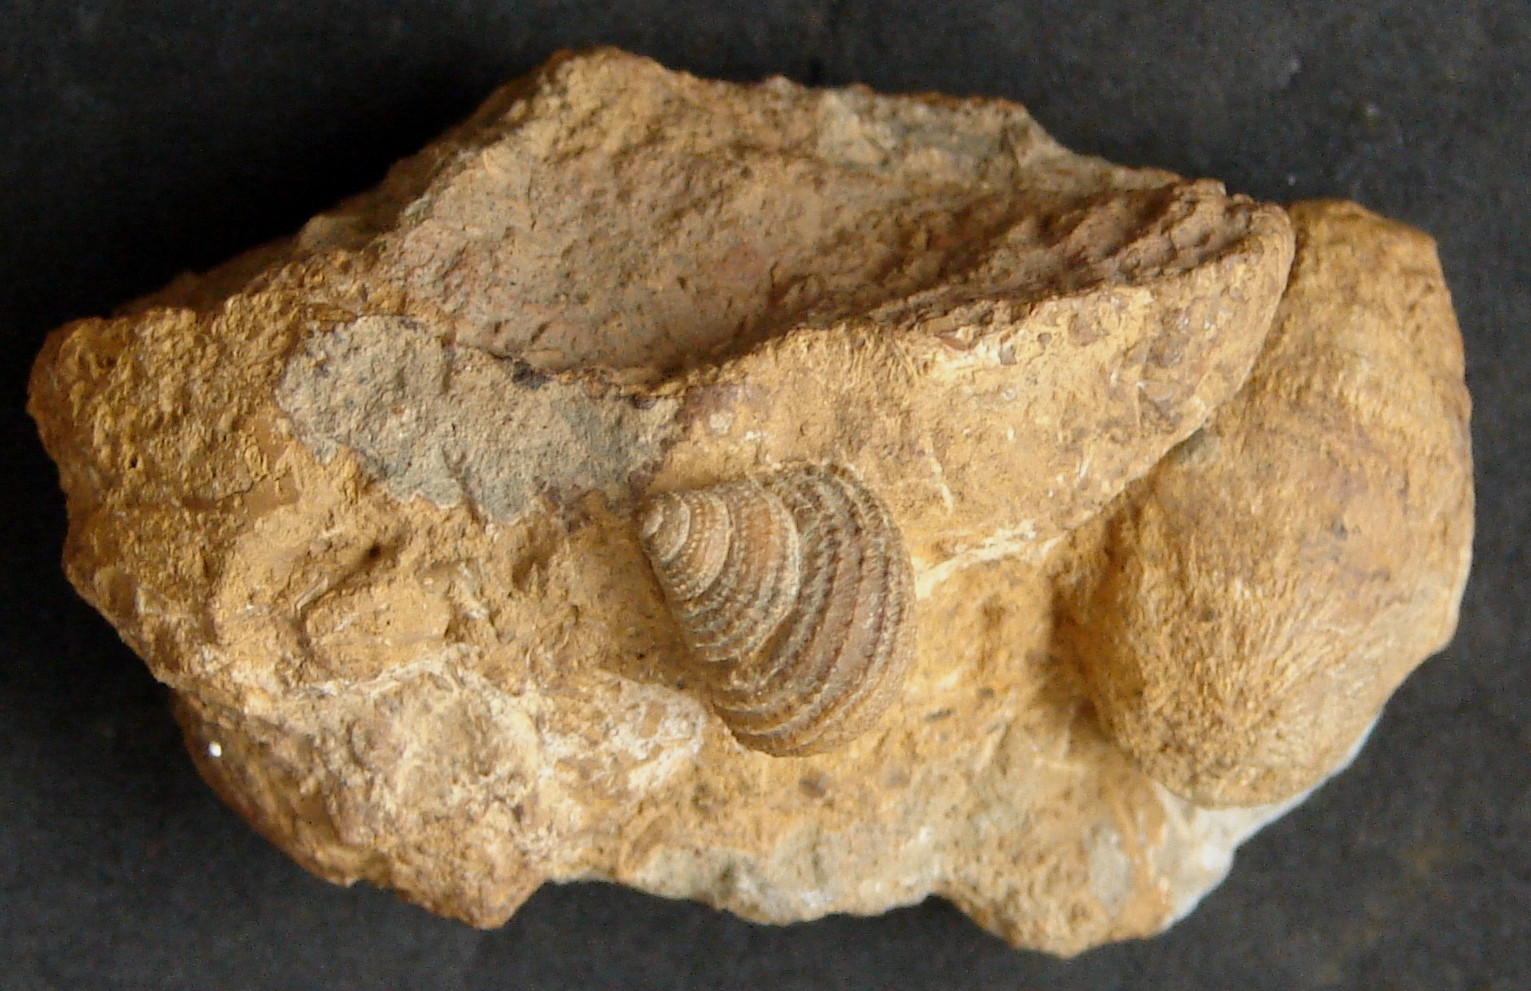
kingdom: Animalia
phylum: Mollusca
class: Gastropoda
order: Seguenziida
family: Eucyclidae
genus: Ooliticia
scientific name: Ooliticia
